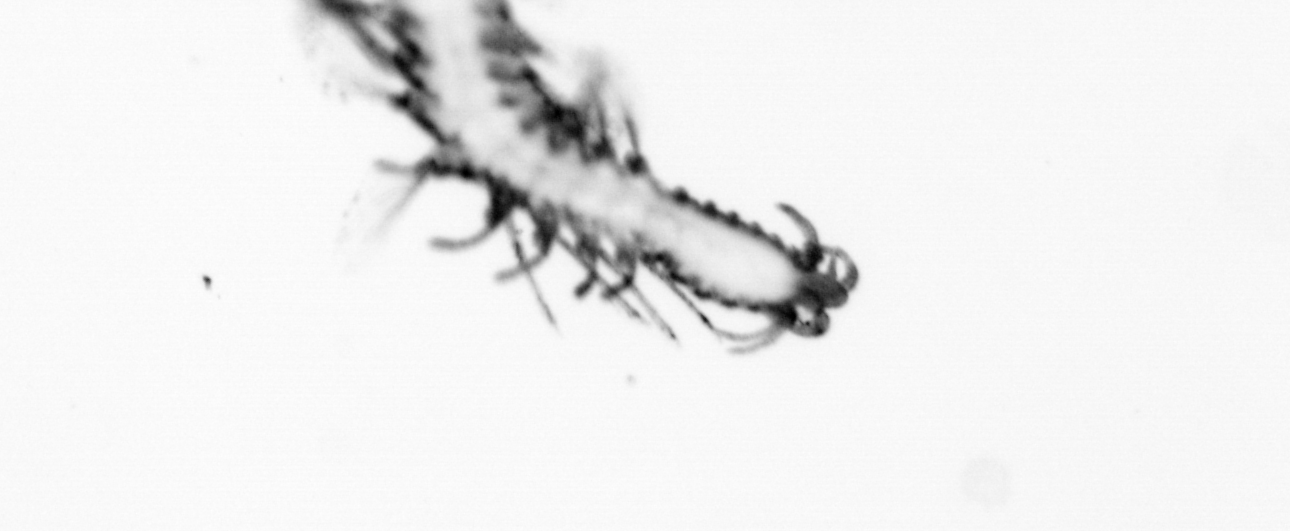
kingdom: Animalia
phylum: Annelida
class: Polychaeta
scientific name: Polychaeta
